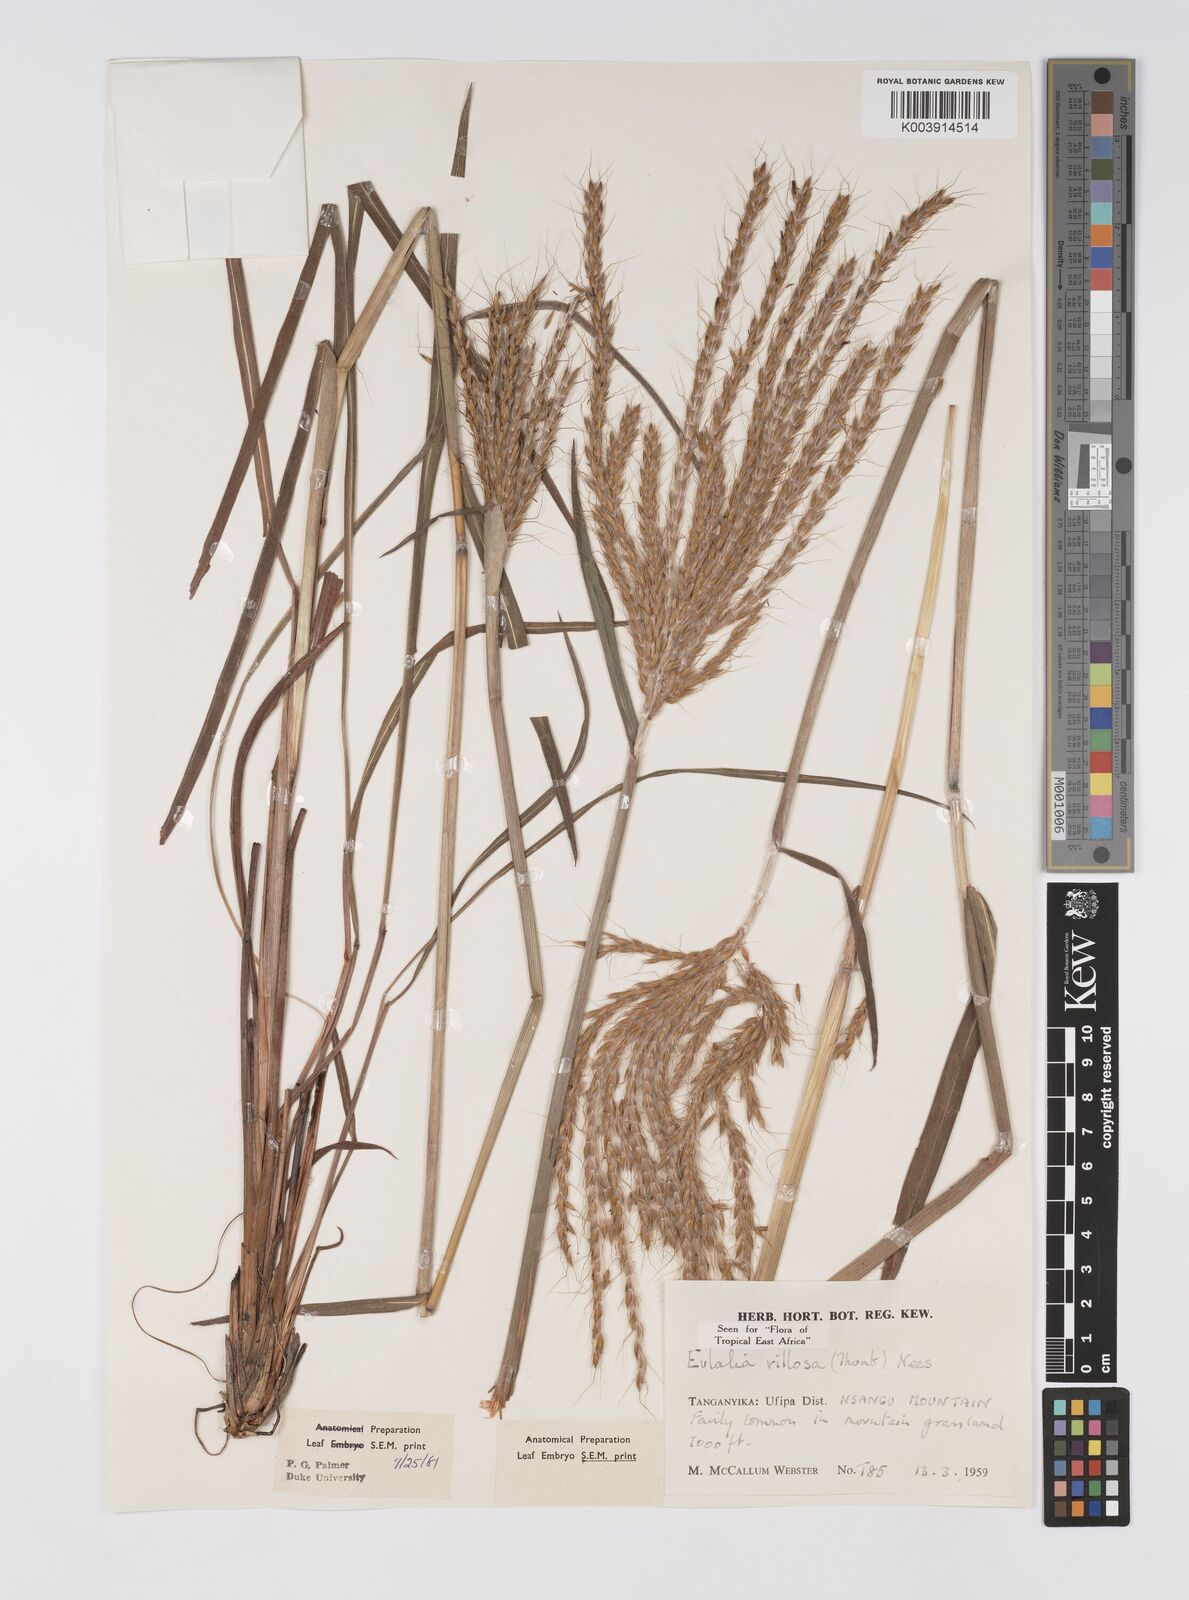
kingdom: Plantae
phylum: Tracheophyta
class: Liliopsida
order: Poales
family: Poaceae
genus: Eulalia
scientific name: Eulalia villosa
